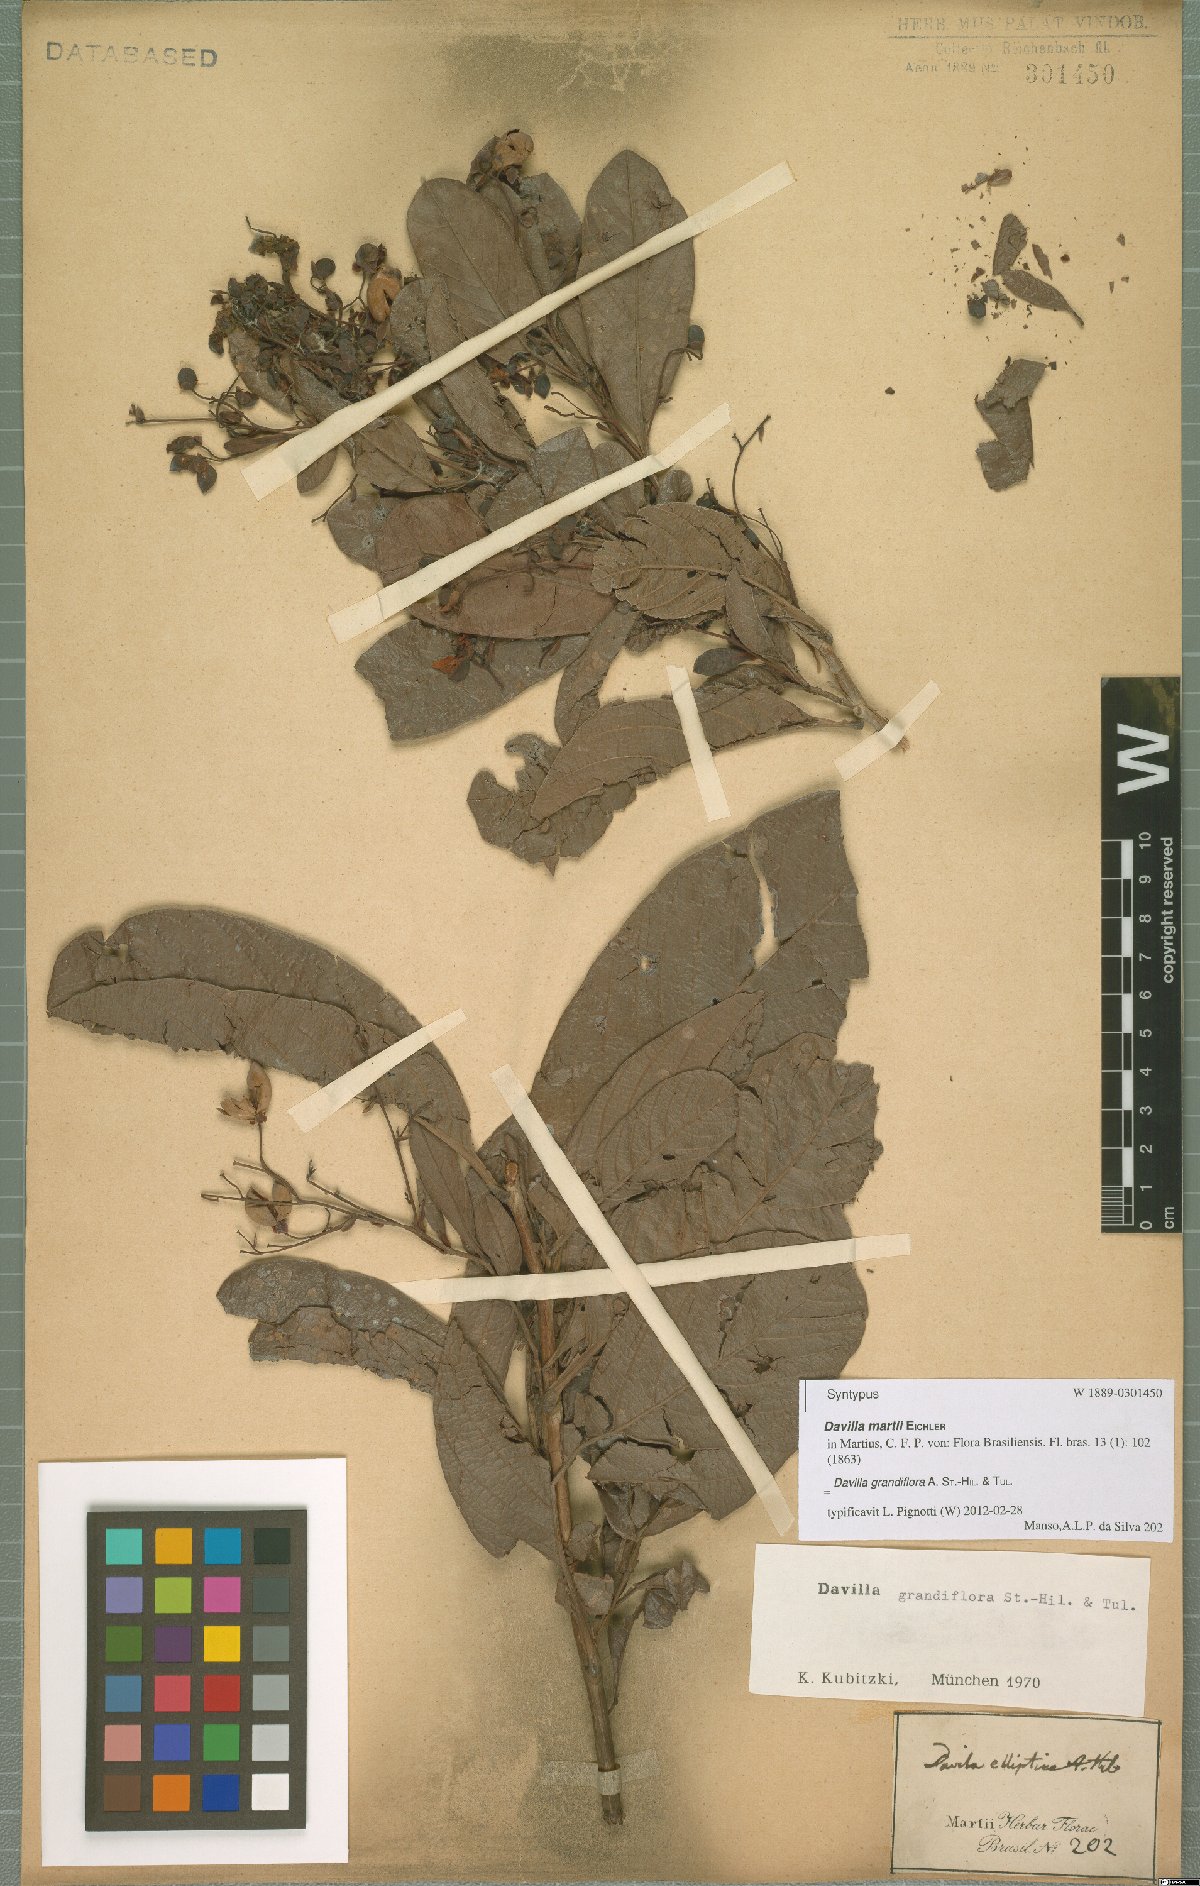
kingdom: Plantae
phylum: Tracheophyta
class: Magnoliopsida
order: Dilleniales
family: Dilleniaceae
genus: Davilla
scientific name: Davilla grandiflora
